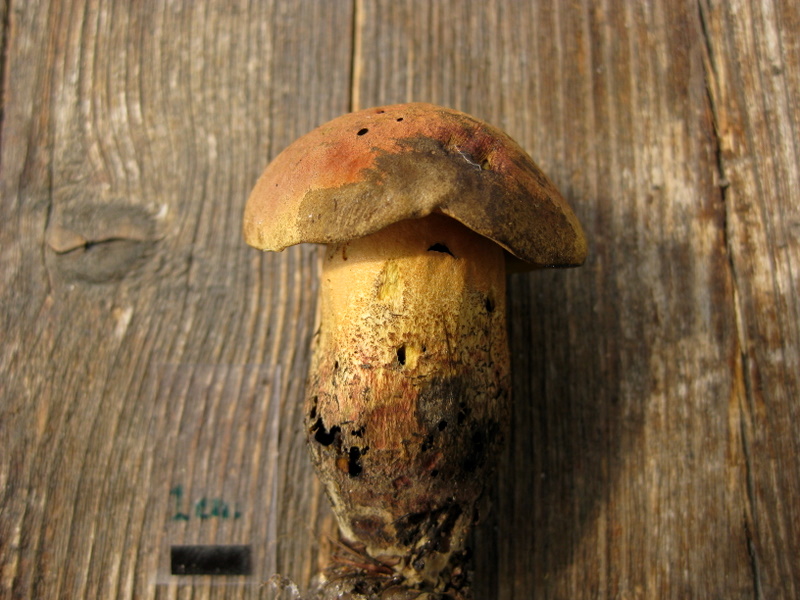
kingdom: Fungi
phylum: Basidiomycota
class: Agaricomycetes
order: Boletales
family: Boletaceae
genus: Suillellus
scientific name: Suillellus queletii
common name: glatstokket indigorørhat
